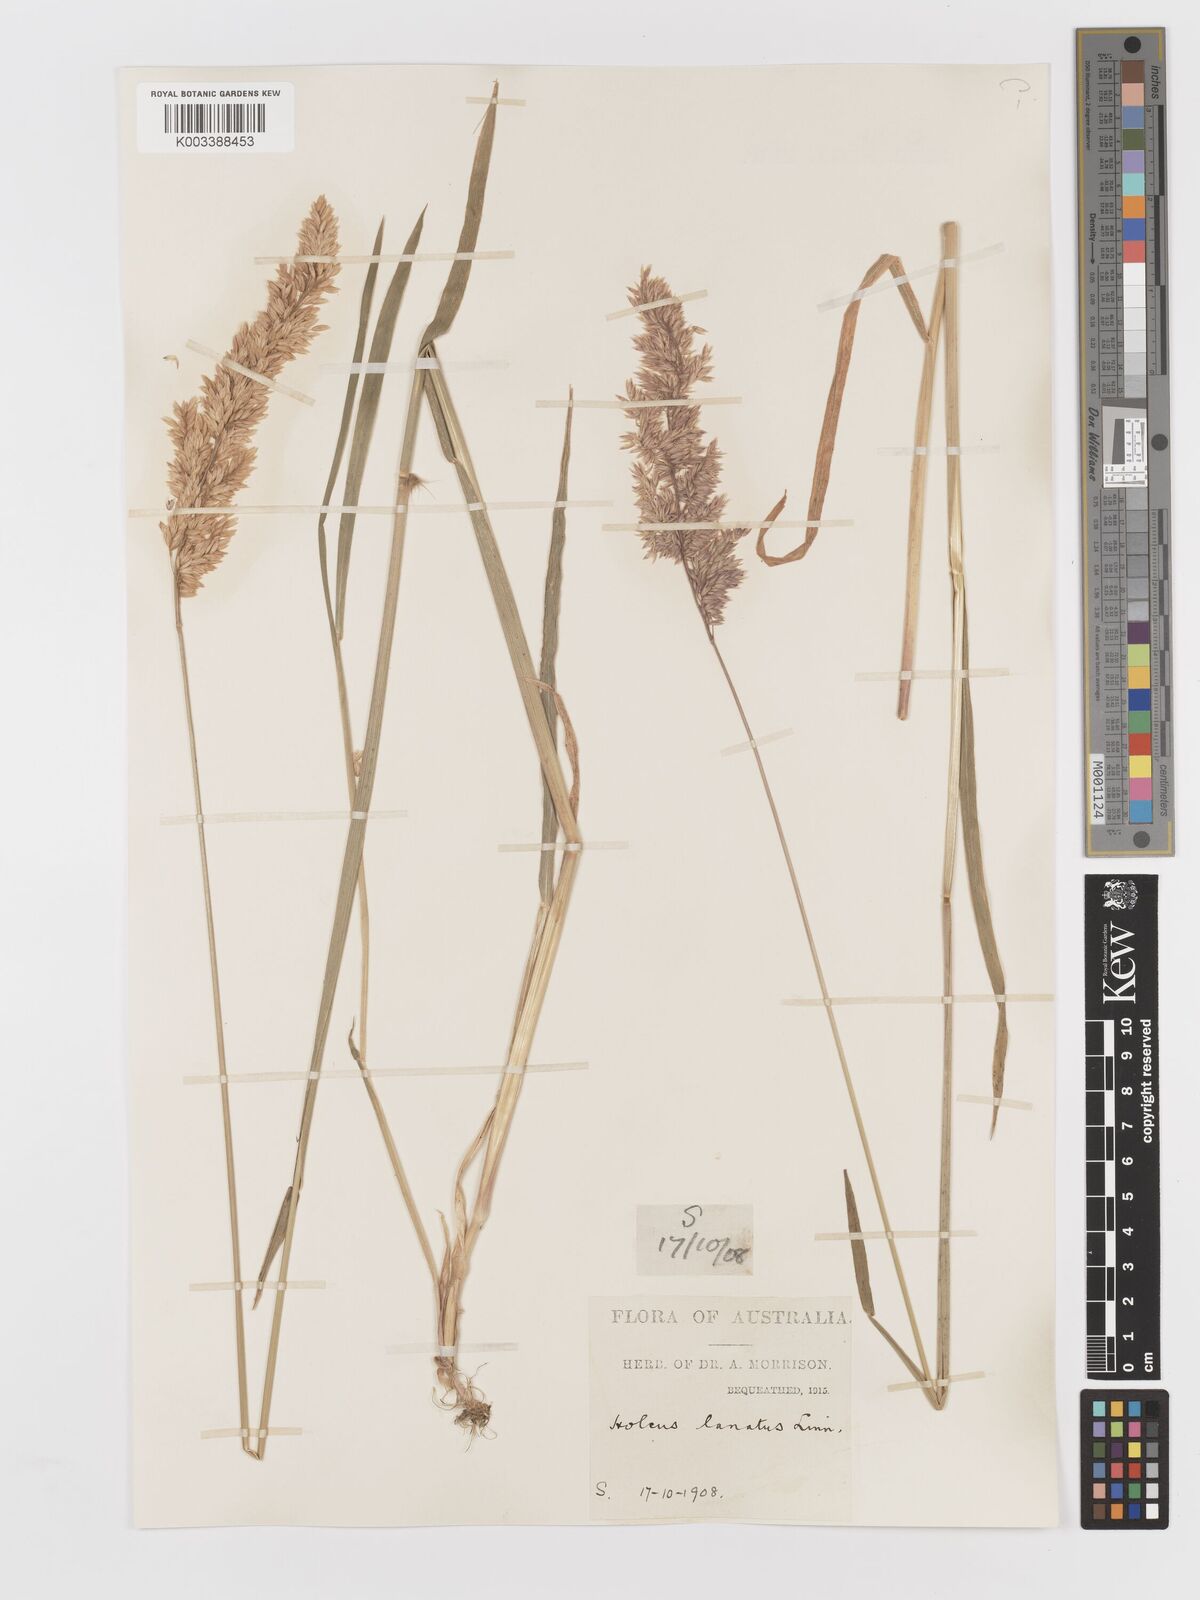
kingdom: Plantae
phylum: Tracheophyta
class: Liliopsida
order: Poales
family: Poaceae
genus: Holcus
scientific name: Holcus lanatus
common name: Yorkshire-fog
